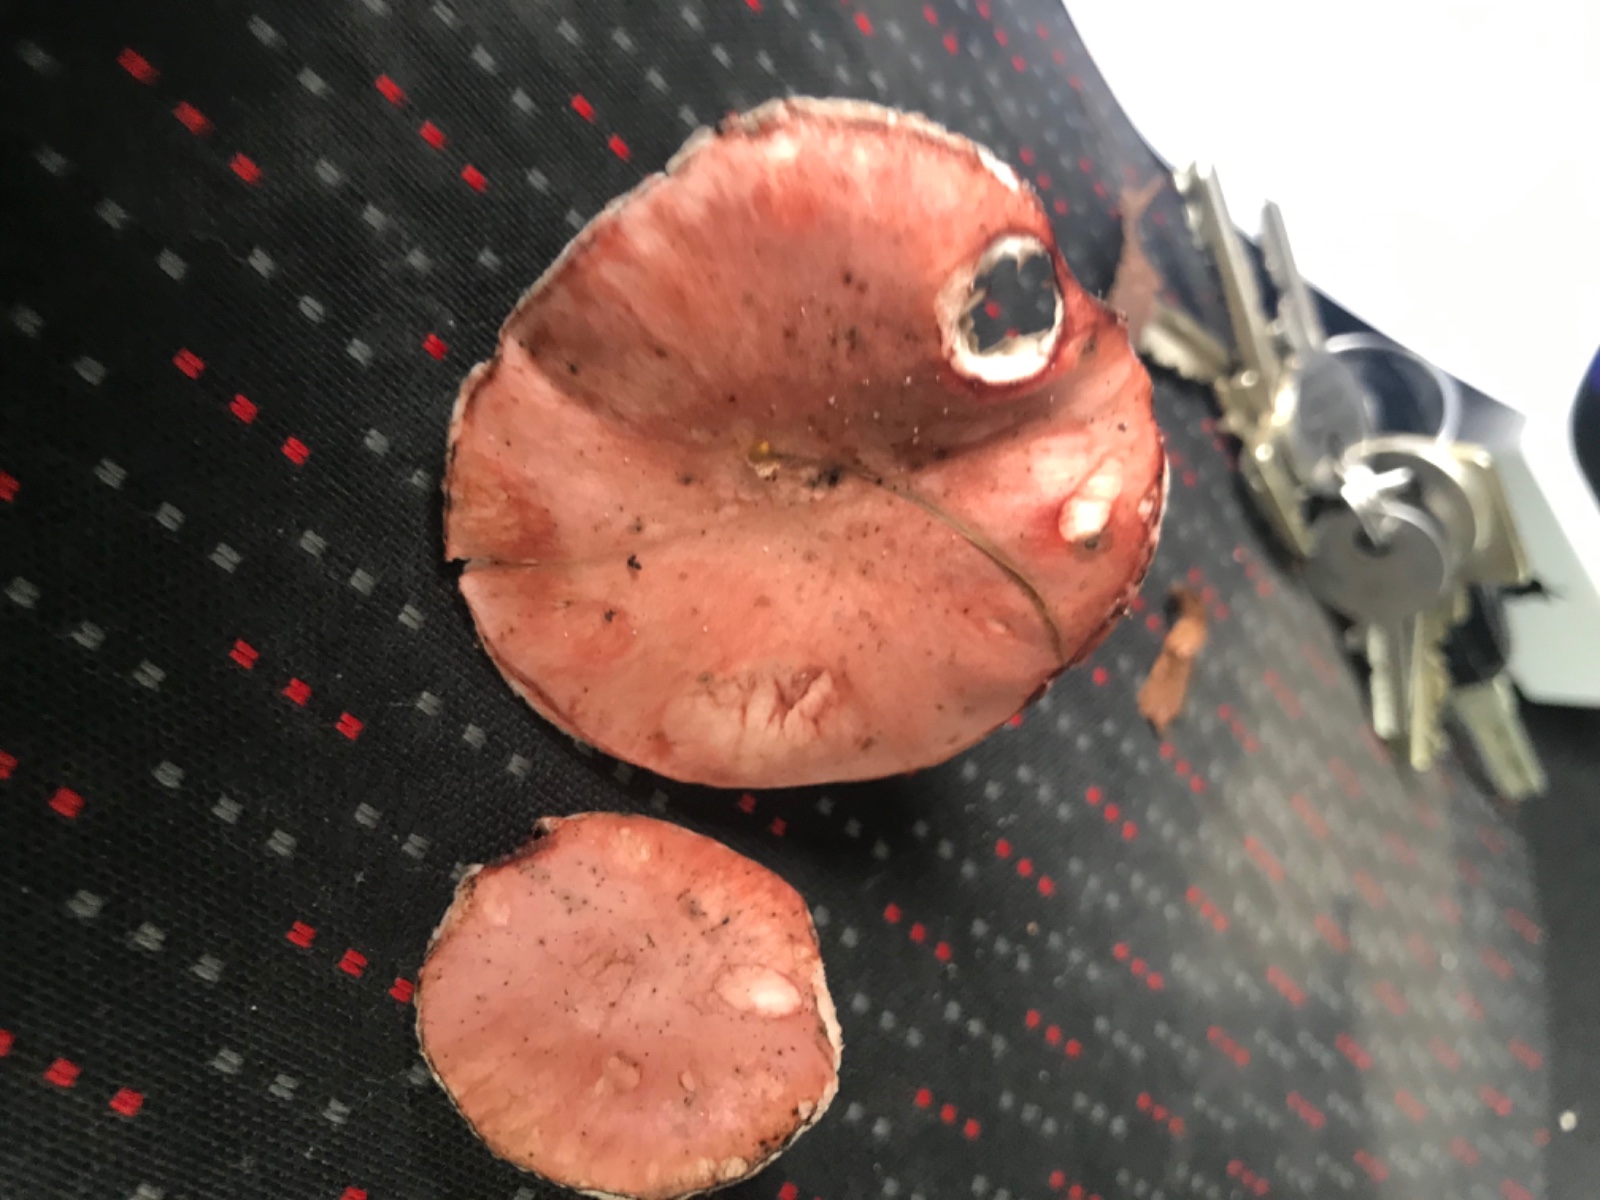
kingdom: Fungi
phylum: Basidiomycota
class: Agaricomycetes
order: Boletales
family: Gomphidiaceae
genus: Gomphidius
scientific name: Gomphidius roseus
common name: rosenrød slimslør
